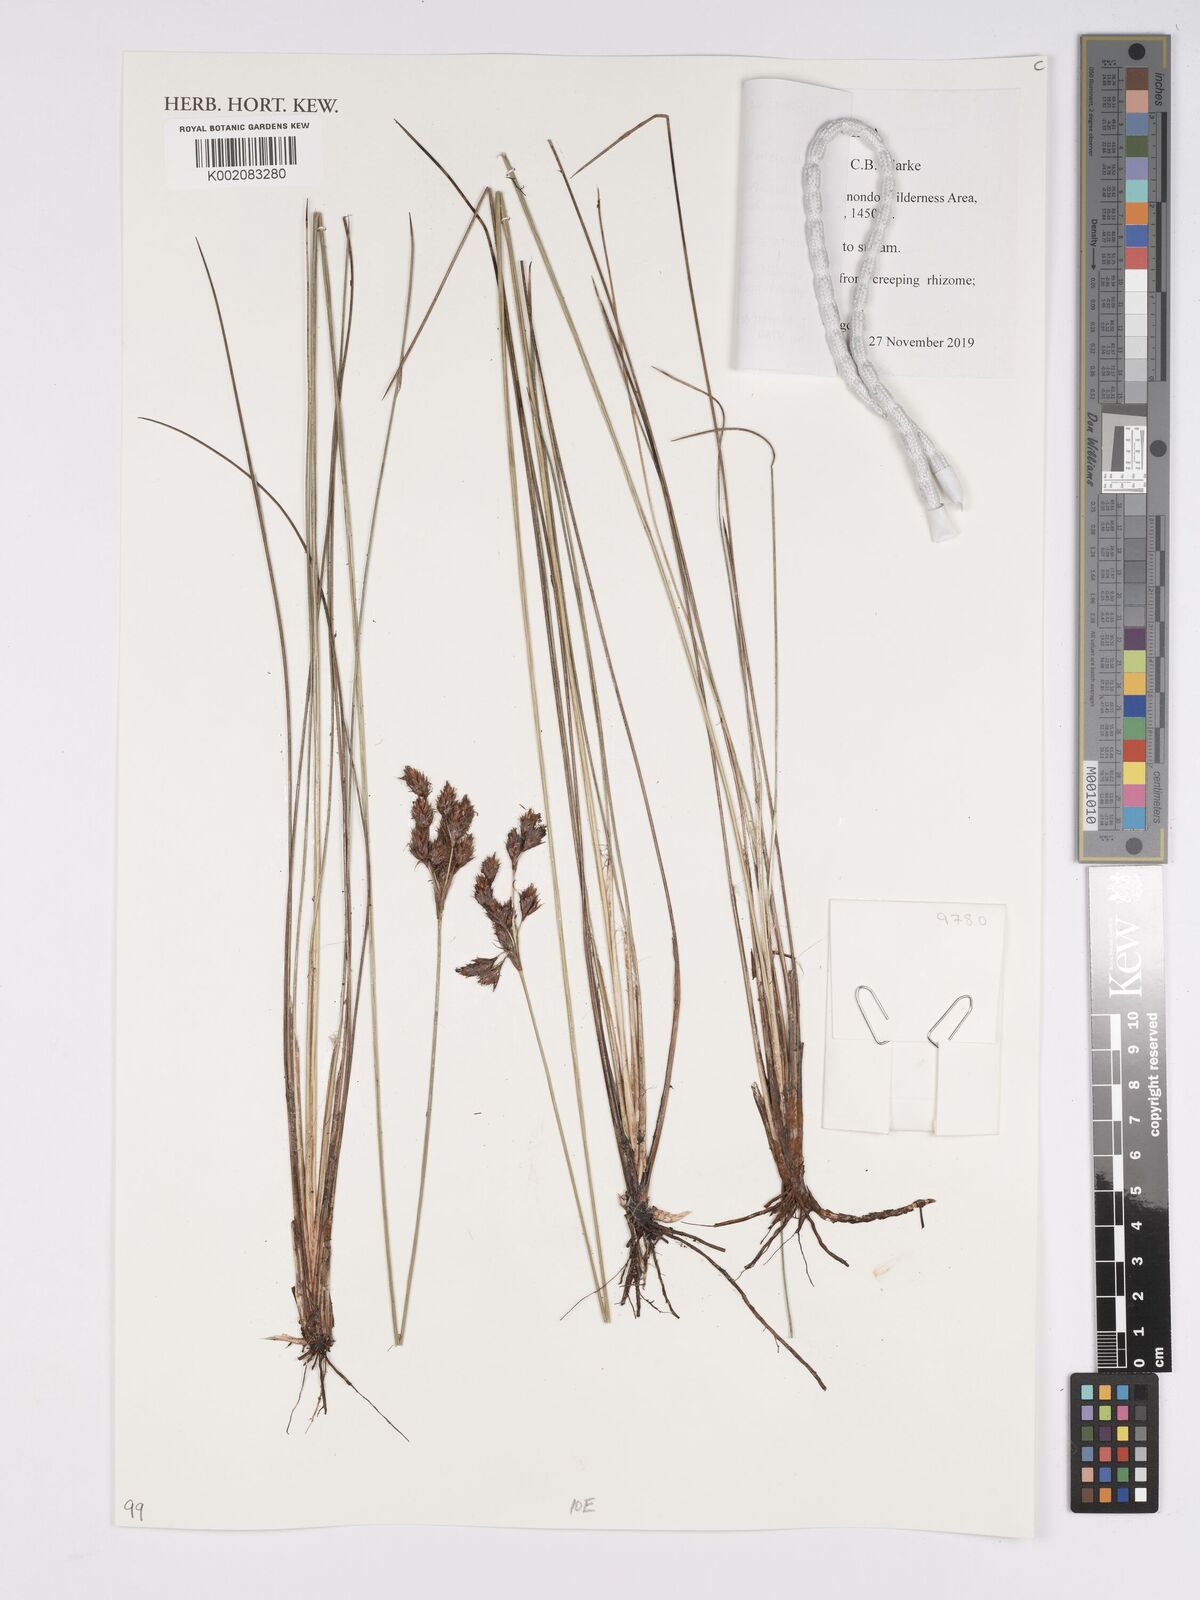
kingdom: Plantae
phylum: Tracheophyta
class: Liliopsida
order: Poales
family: Cyperaceae
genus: Bulbostylis
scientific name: Bulbostylis schoenoides
